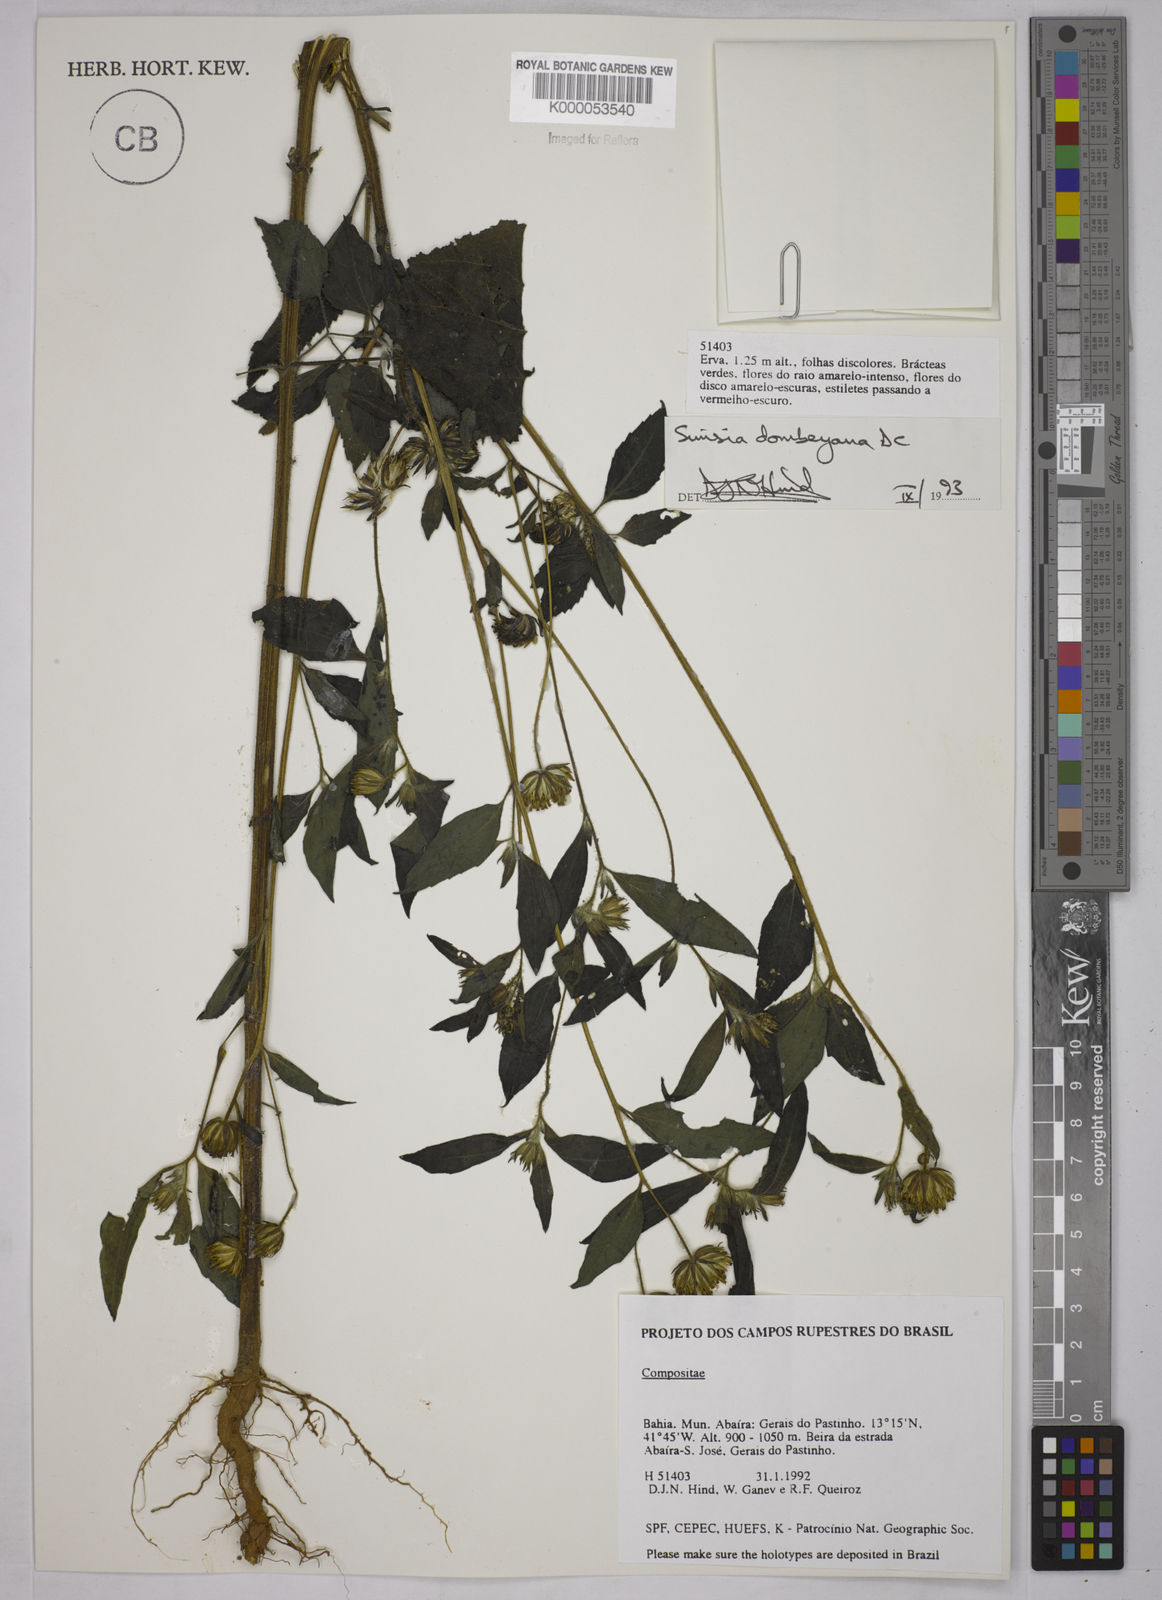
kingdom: Plantae
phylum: Tracheophyta
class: Magnoliopsida
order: Asterales
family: Asteraceae
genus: Simsia
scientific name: Simsia dombeyana
